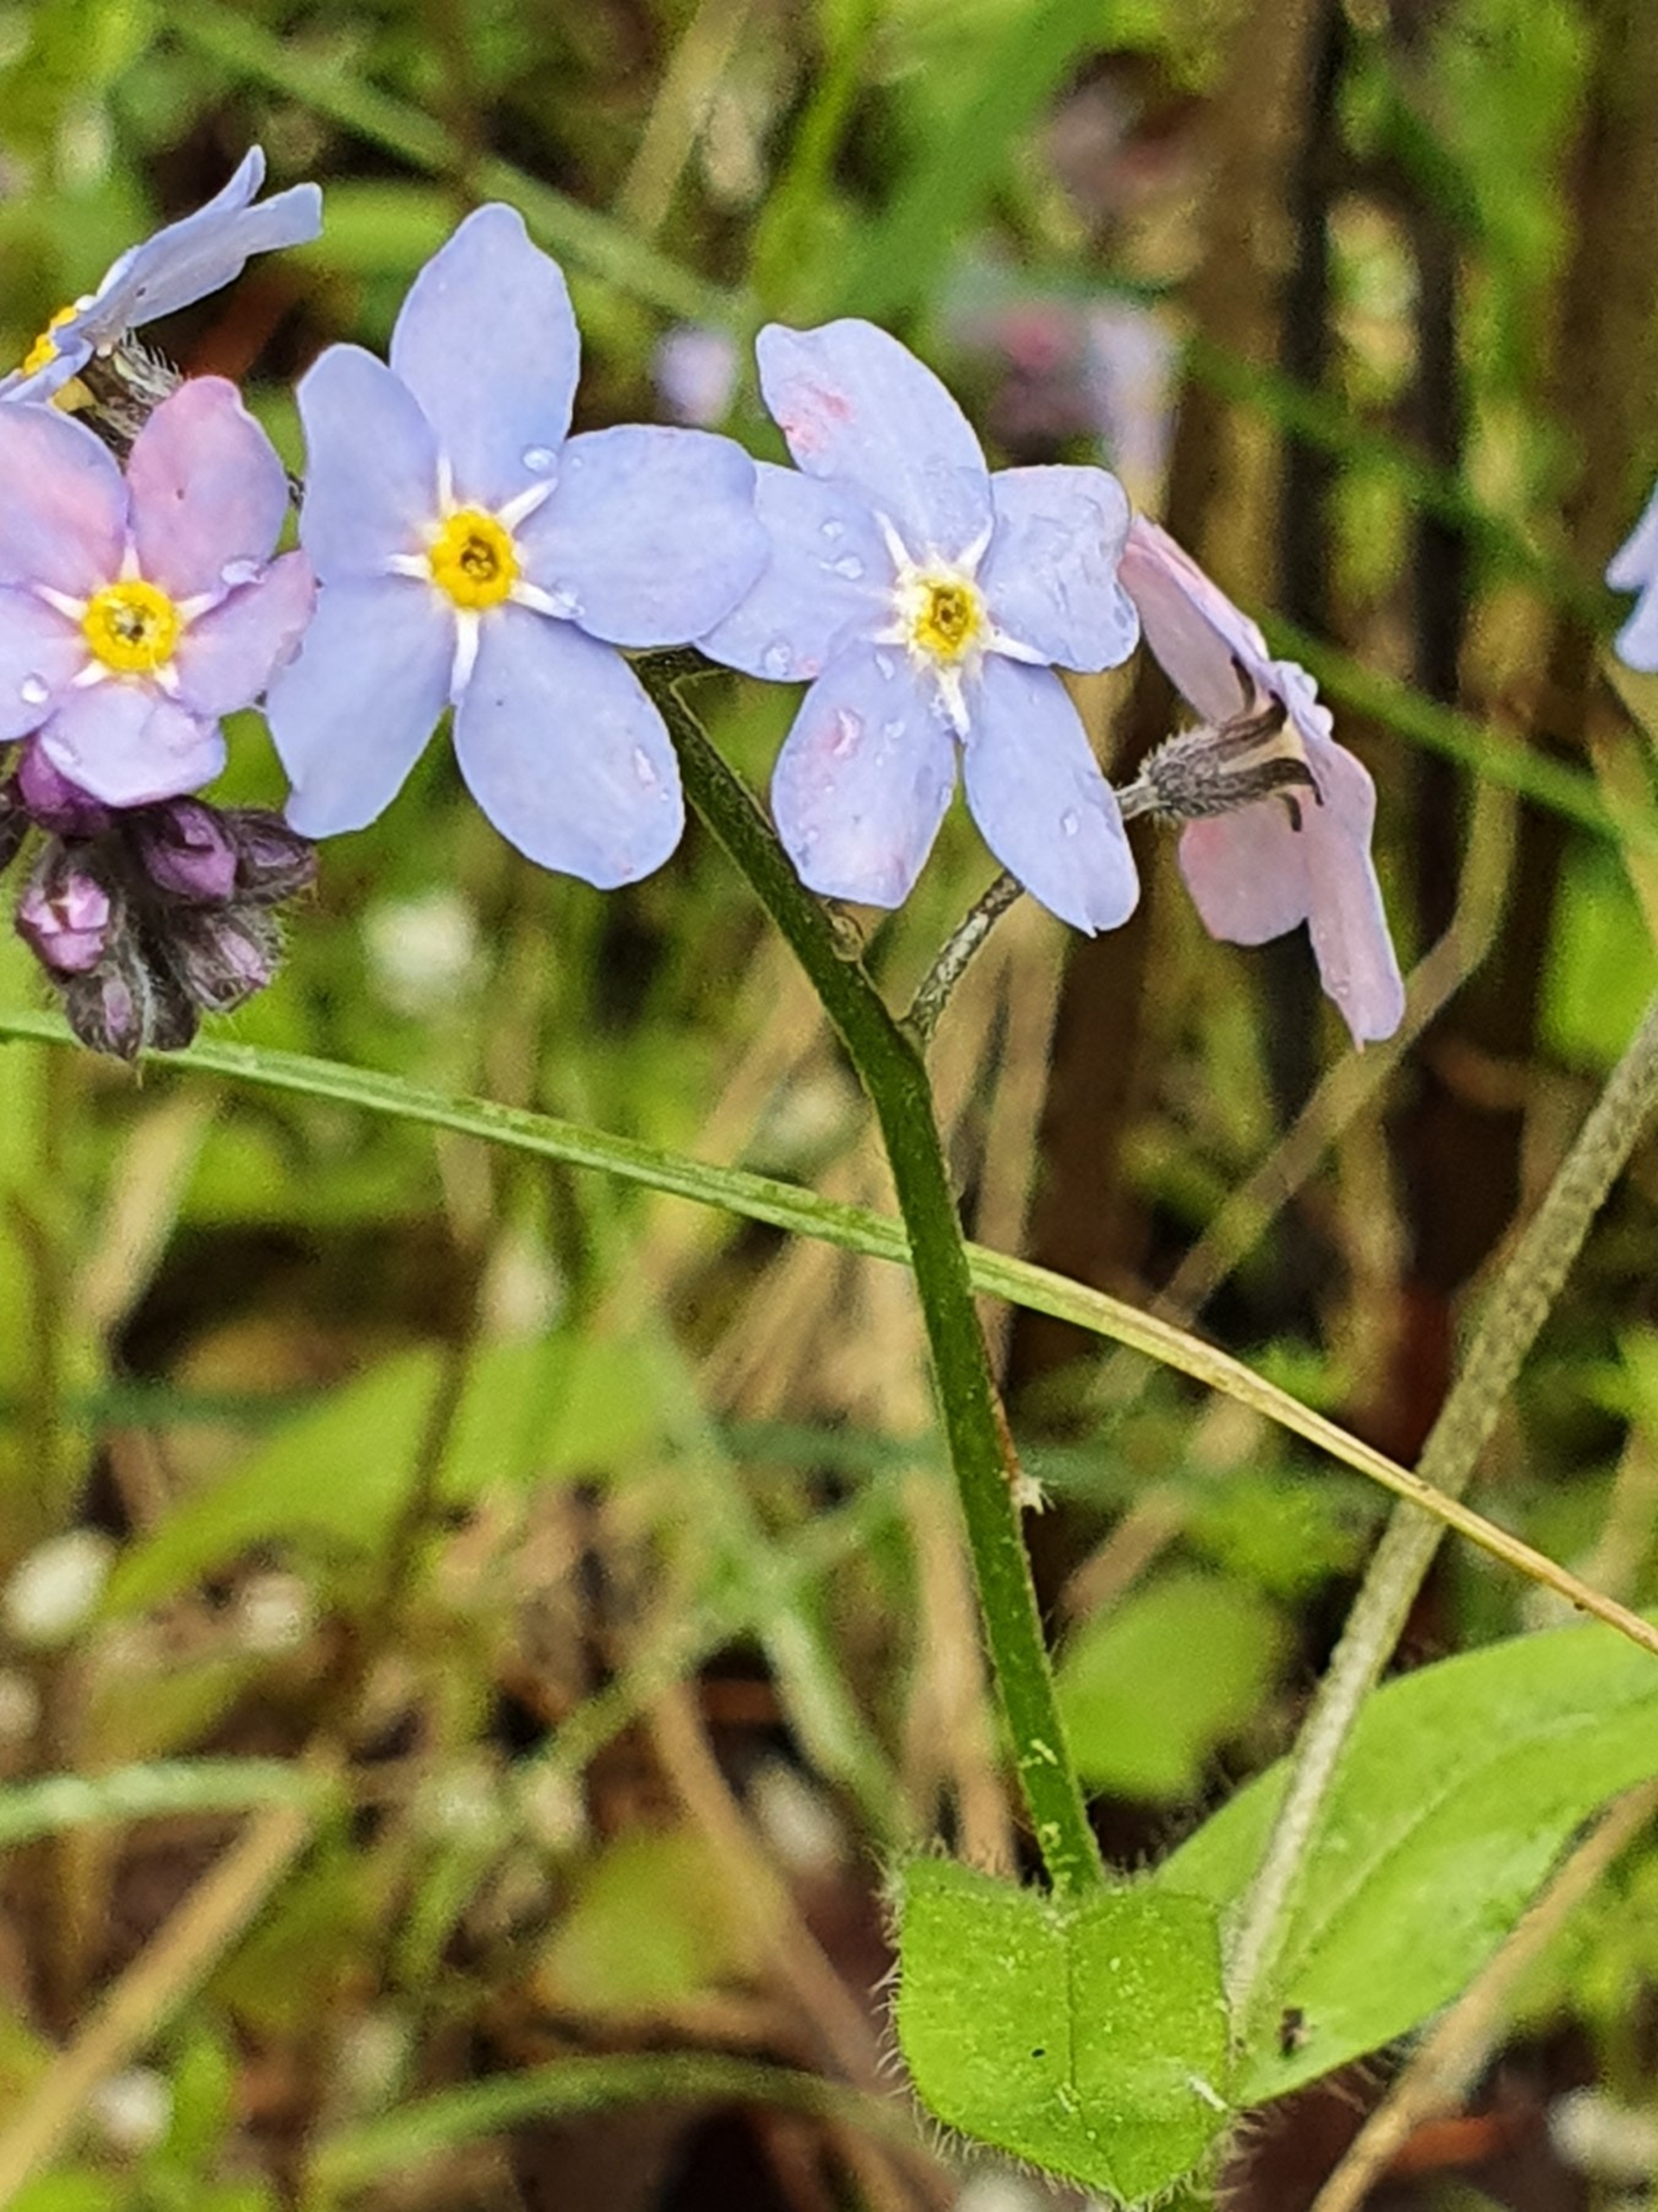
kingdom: Plantae
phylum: Tracheophyta
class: Magnoliopsida
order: Boraginales
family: Boraginaceae
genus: Myosotis
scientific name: Myosotis sylvatica
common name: Skov-forglemmigej
